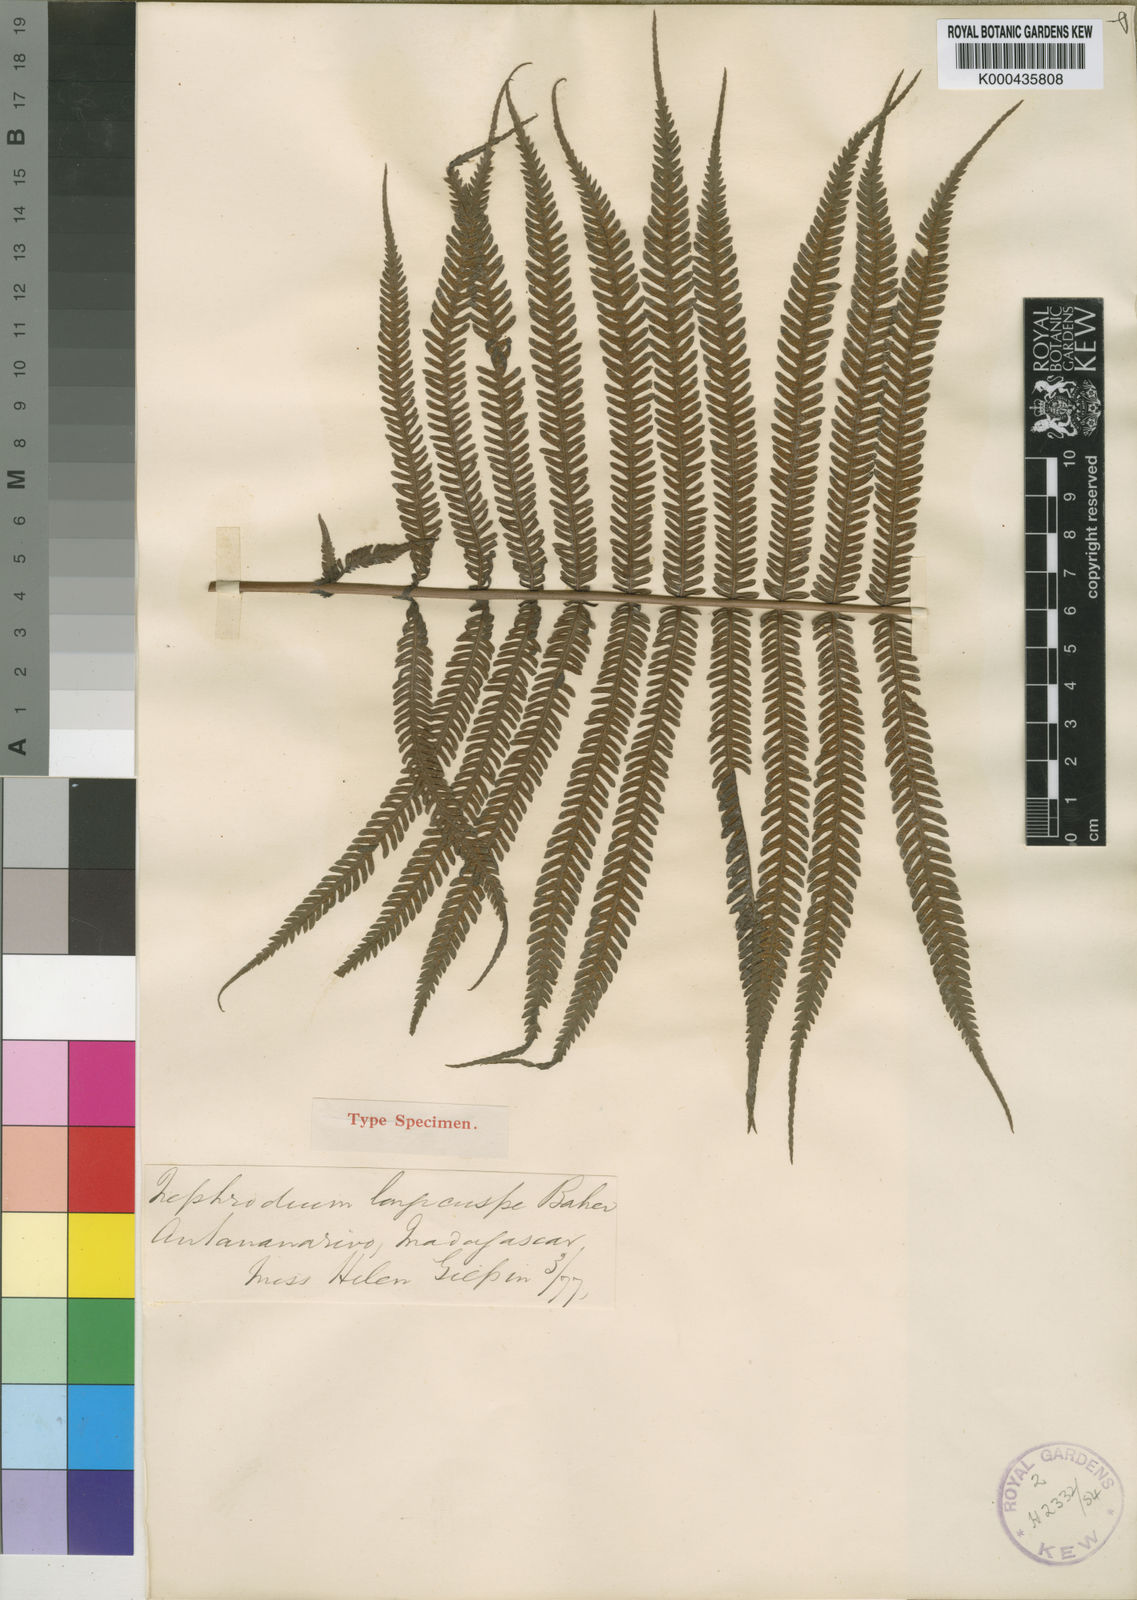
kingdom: Plantae
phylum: Tracheophyta
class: Polypodiopsida
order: Polypodiales
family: Thelypteridaceae
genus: Pseudocyclosorus
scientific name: Pseudocyclosorus pulcher
